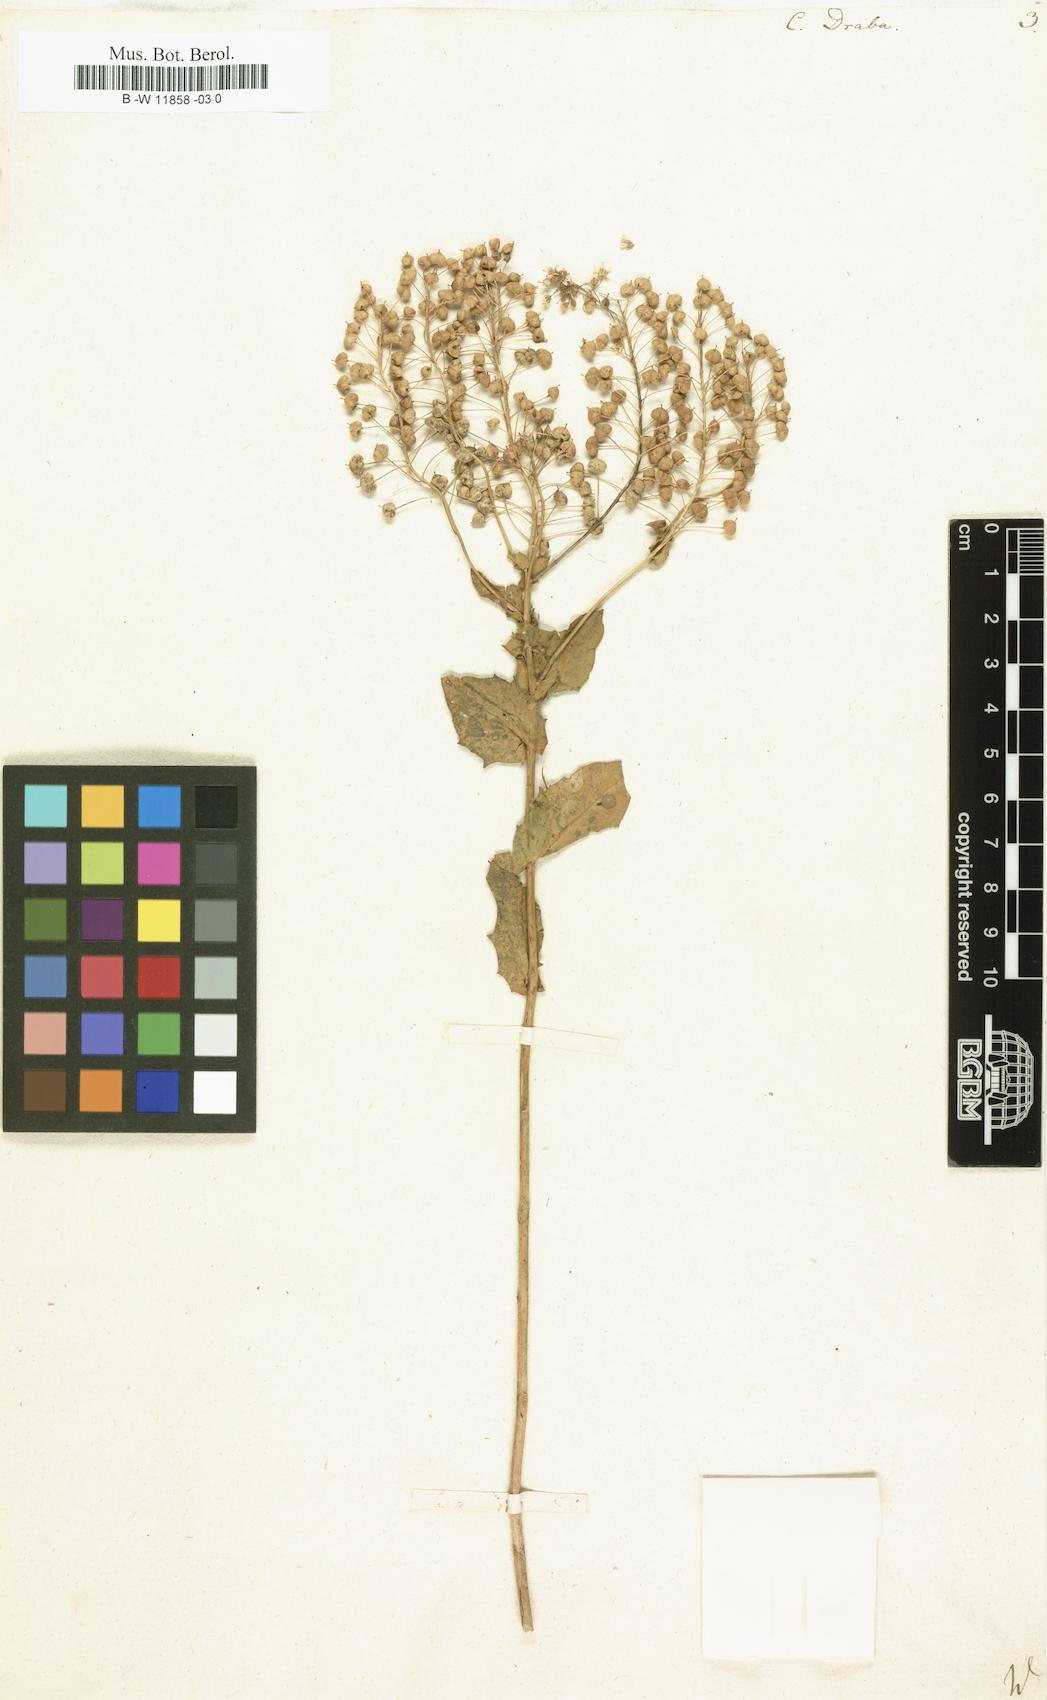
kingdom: Plantae
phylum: Tracheophyta
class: Magnoliopsida
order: Brassicales
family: Brassicaceae
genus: Lepidium
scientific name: Lepidium draba
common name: Hoary cress
